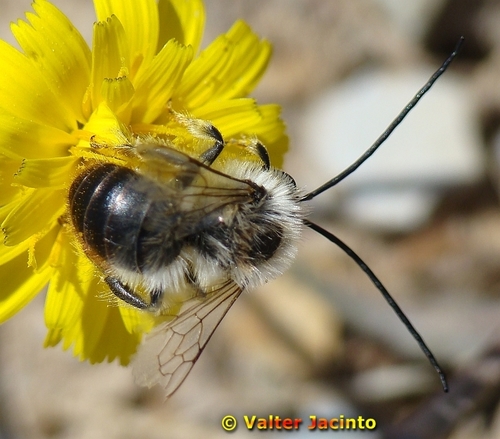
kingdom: Animalia
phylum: Arthropoda
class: Insecta
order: Hymenoptera
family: Apidae
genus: Eucera
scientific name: Eucera
